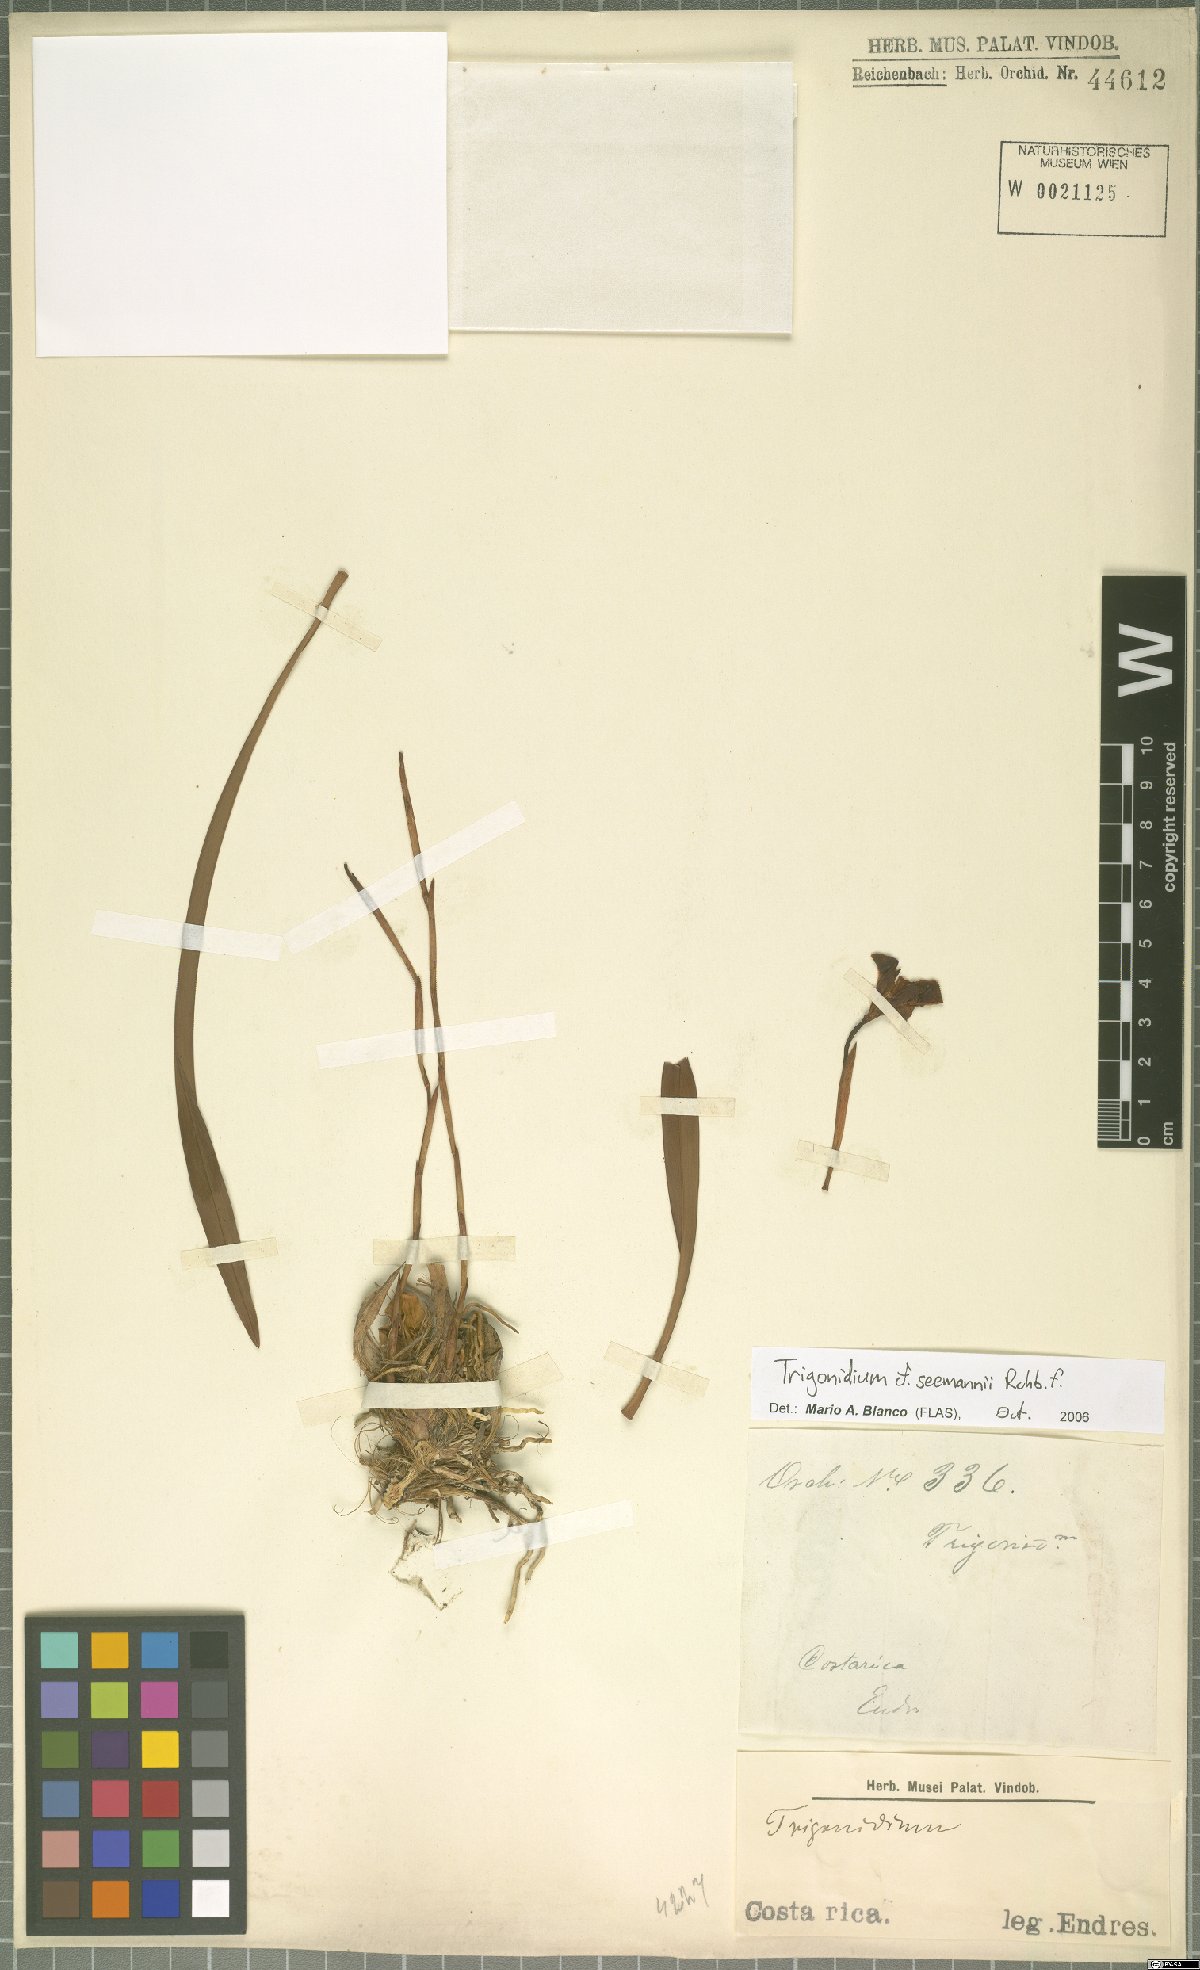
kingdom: Plantae
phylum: Tracheophyta
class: Liliopsida
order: Asparagales
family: Orchidaceae
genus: Maxillaria
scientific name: Maxillaria egertoniana
